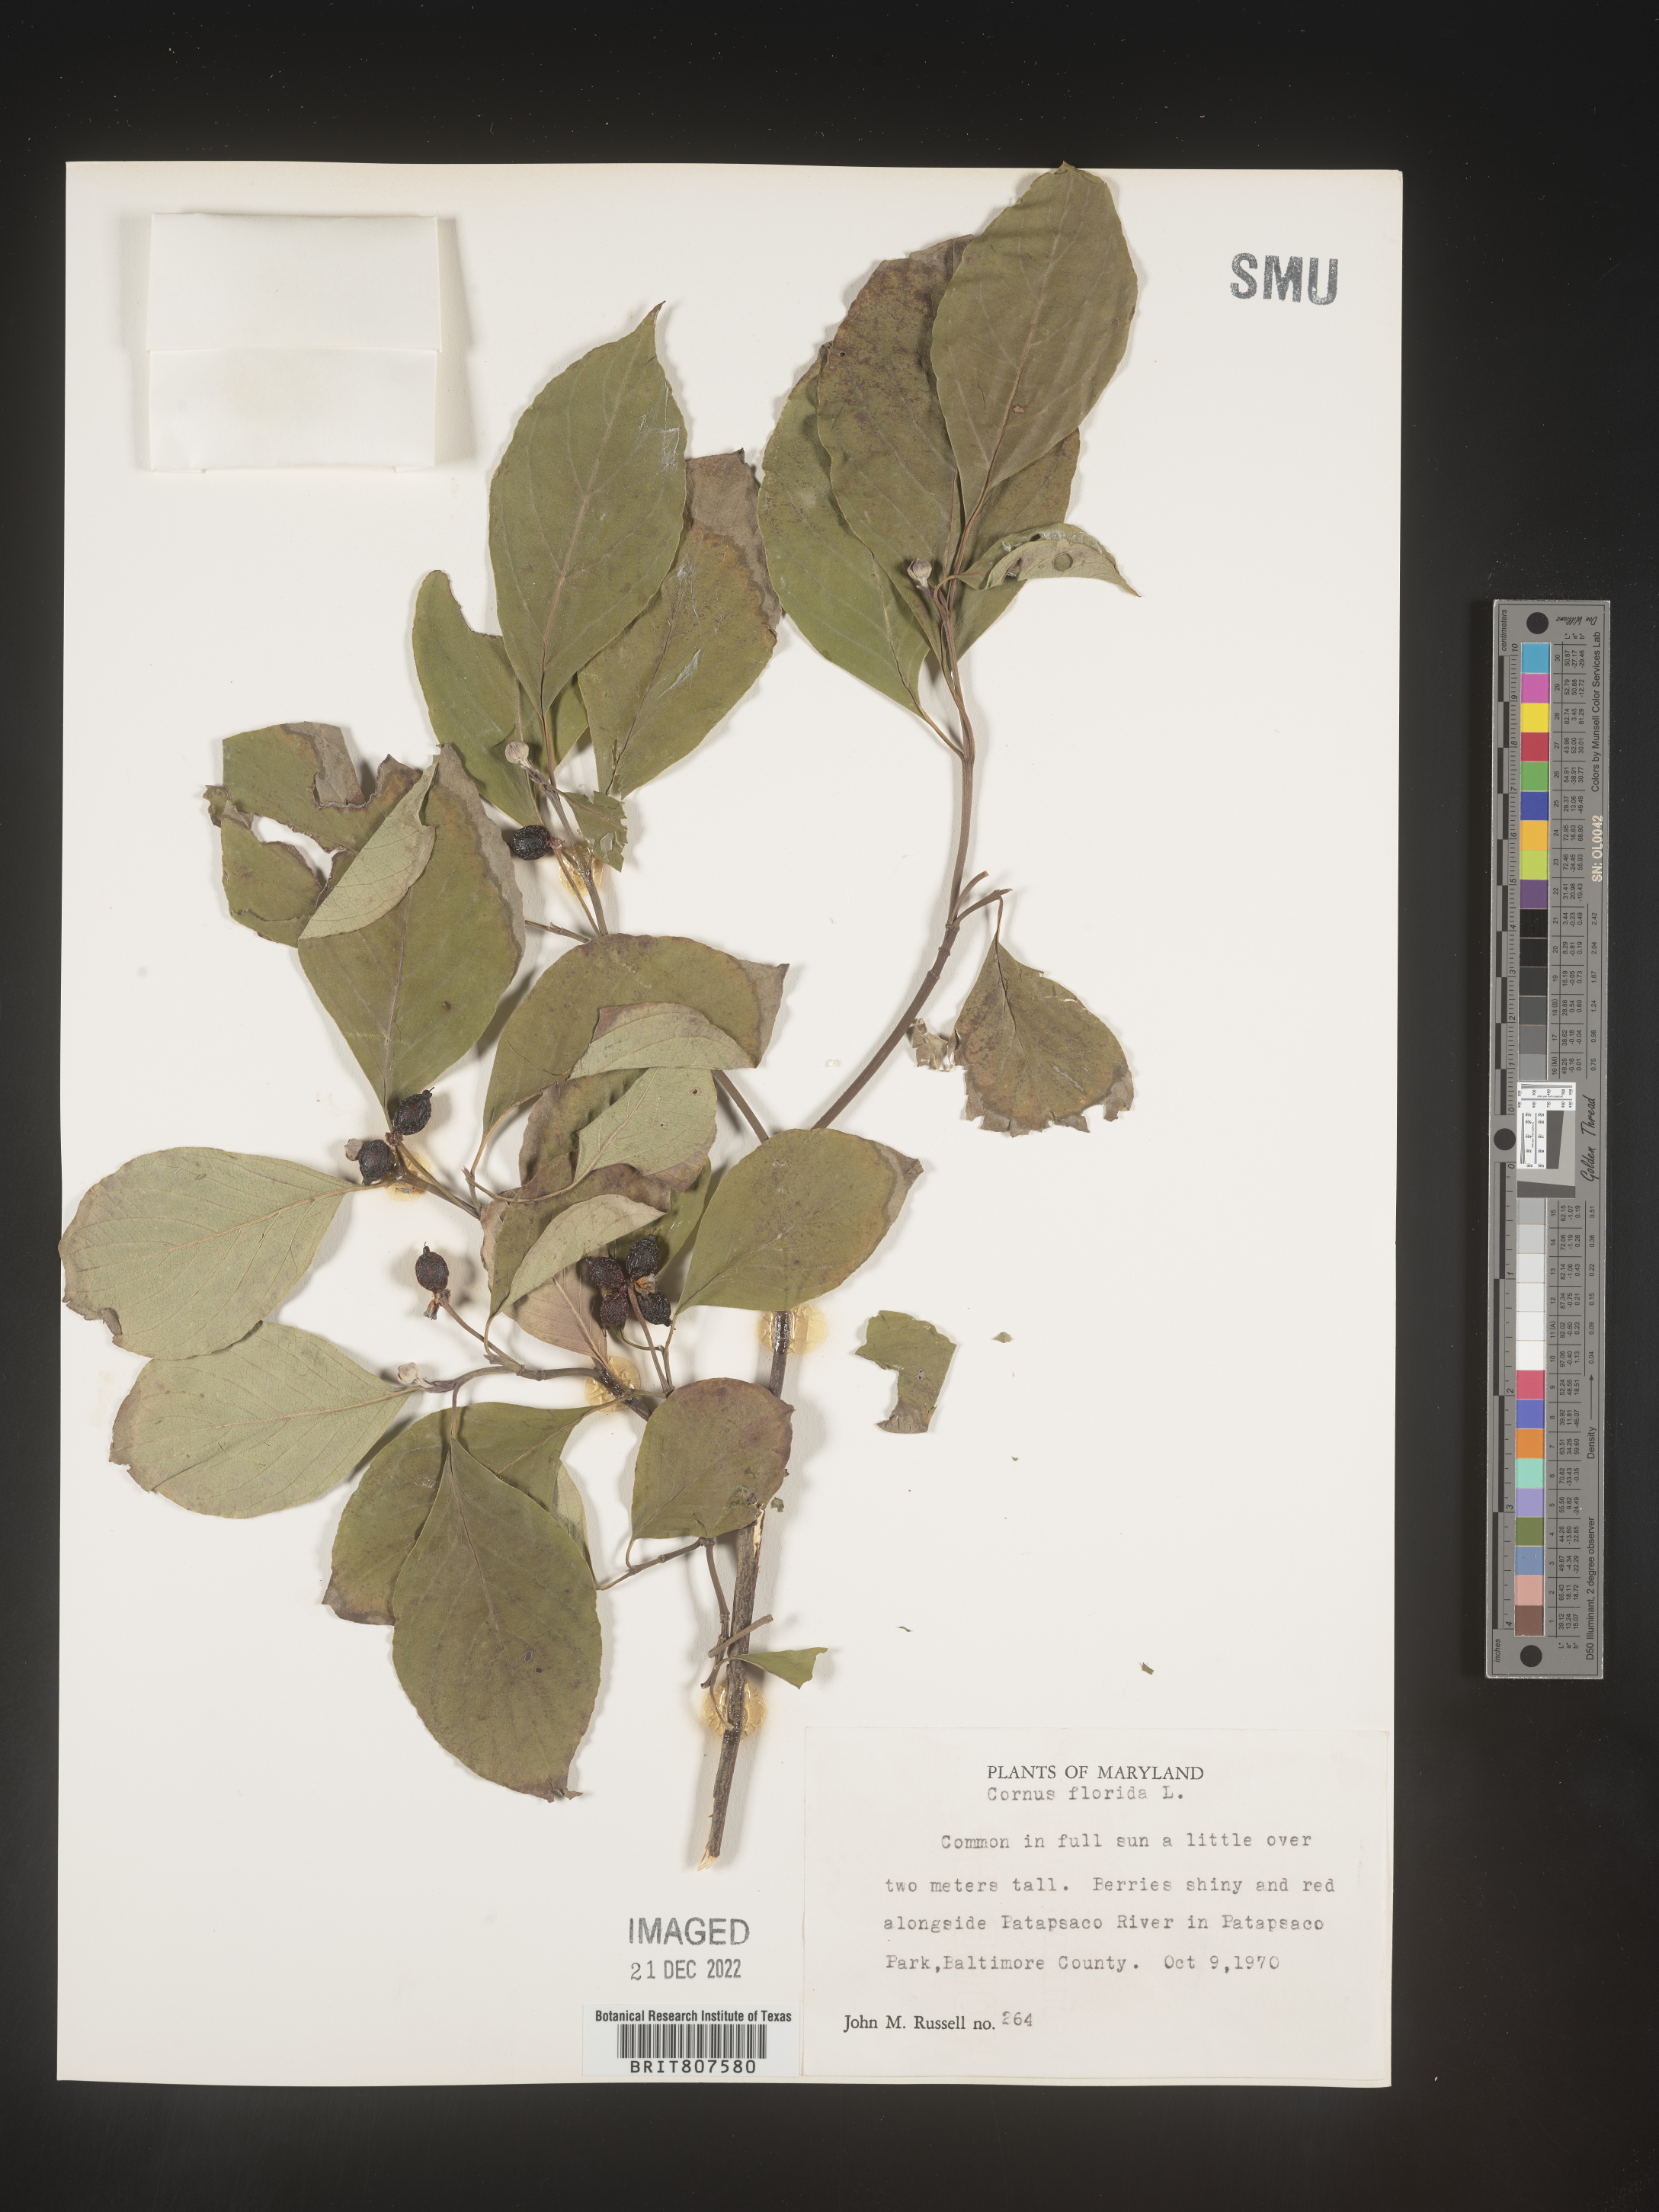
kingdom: Plantae
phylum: Tracheophyta
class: Magnoliopsida
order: Cornales
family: Cornaceae
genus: Cornus
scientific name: Cornus florida
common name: Flowering dogwood
